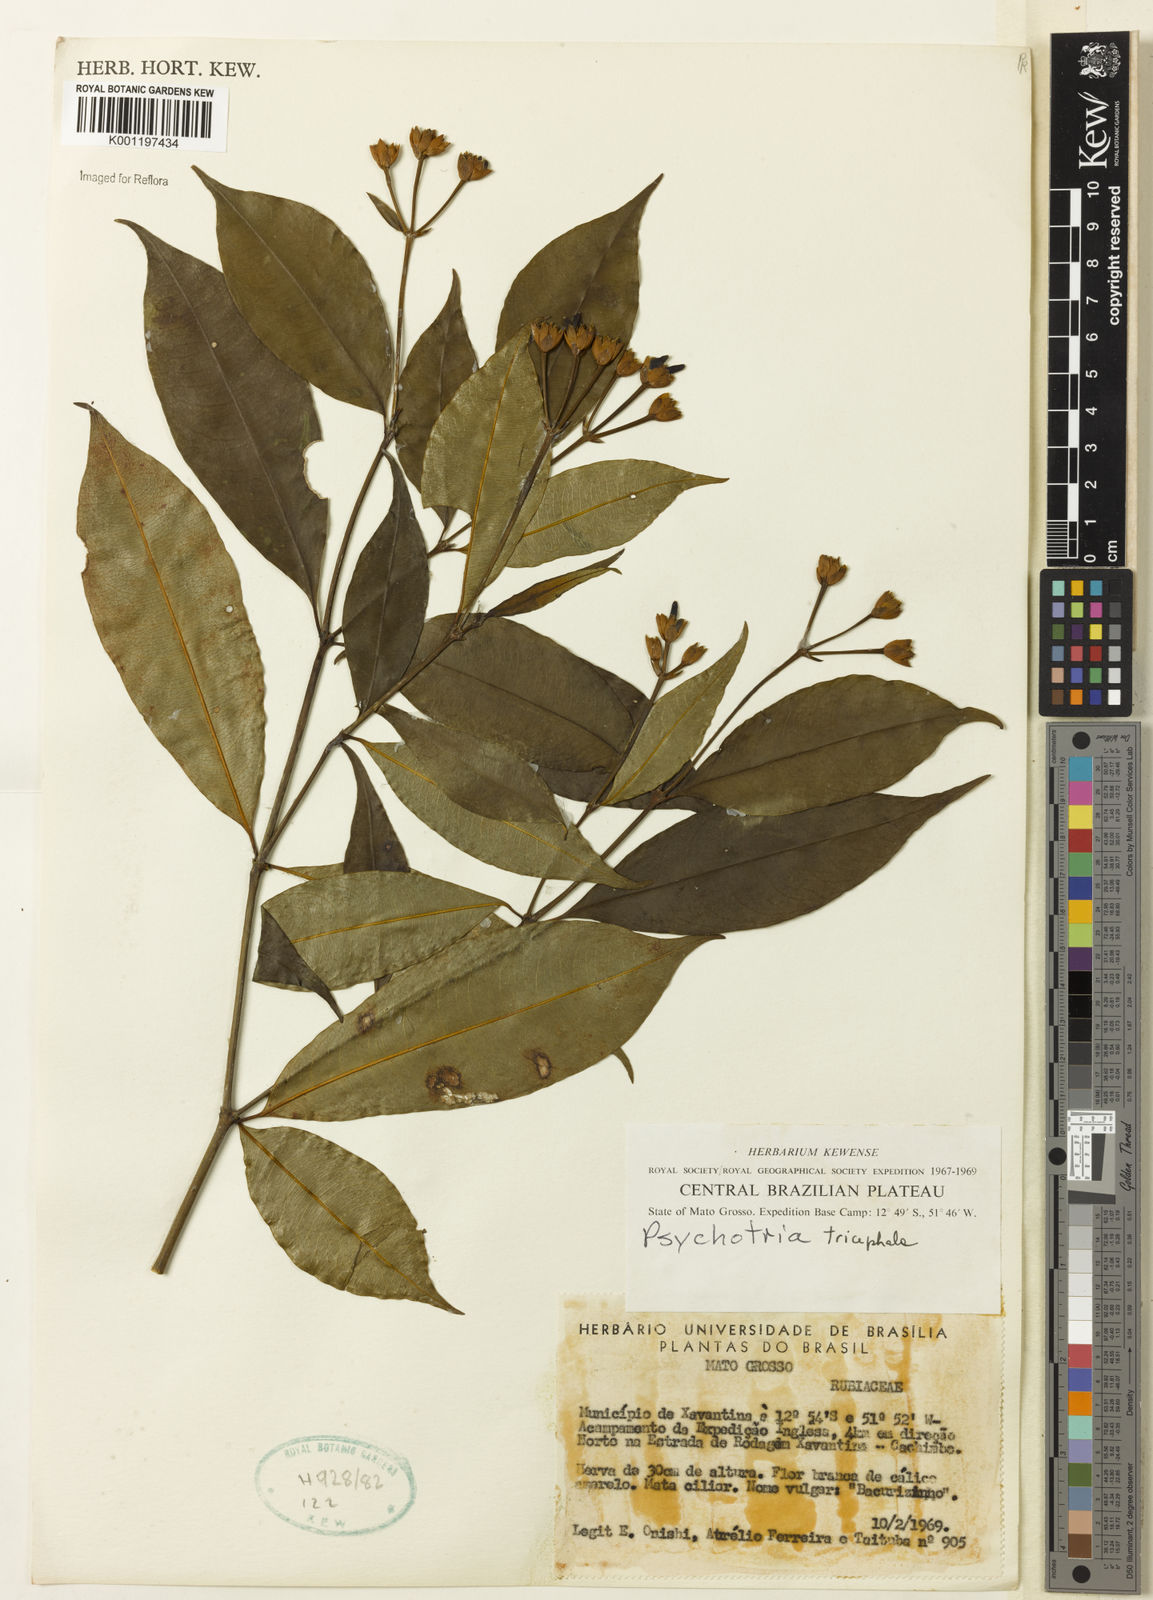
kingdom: Plantae
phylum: Tracheophyta
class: Magnoliopsida
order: Gentianales
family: Rubiaceae
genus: Psychotria
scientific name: Psychotria
